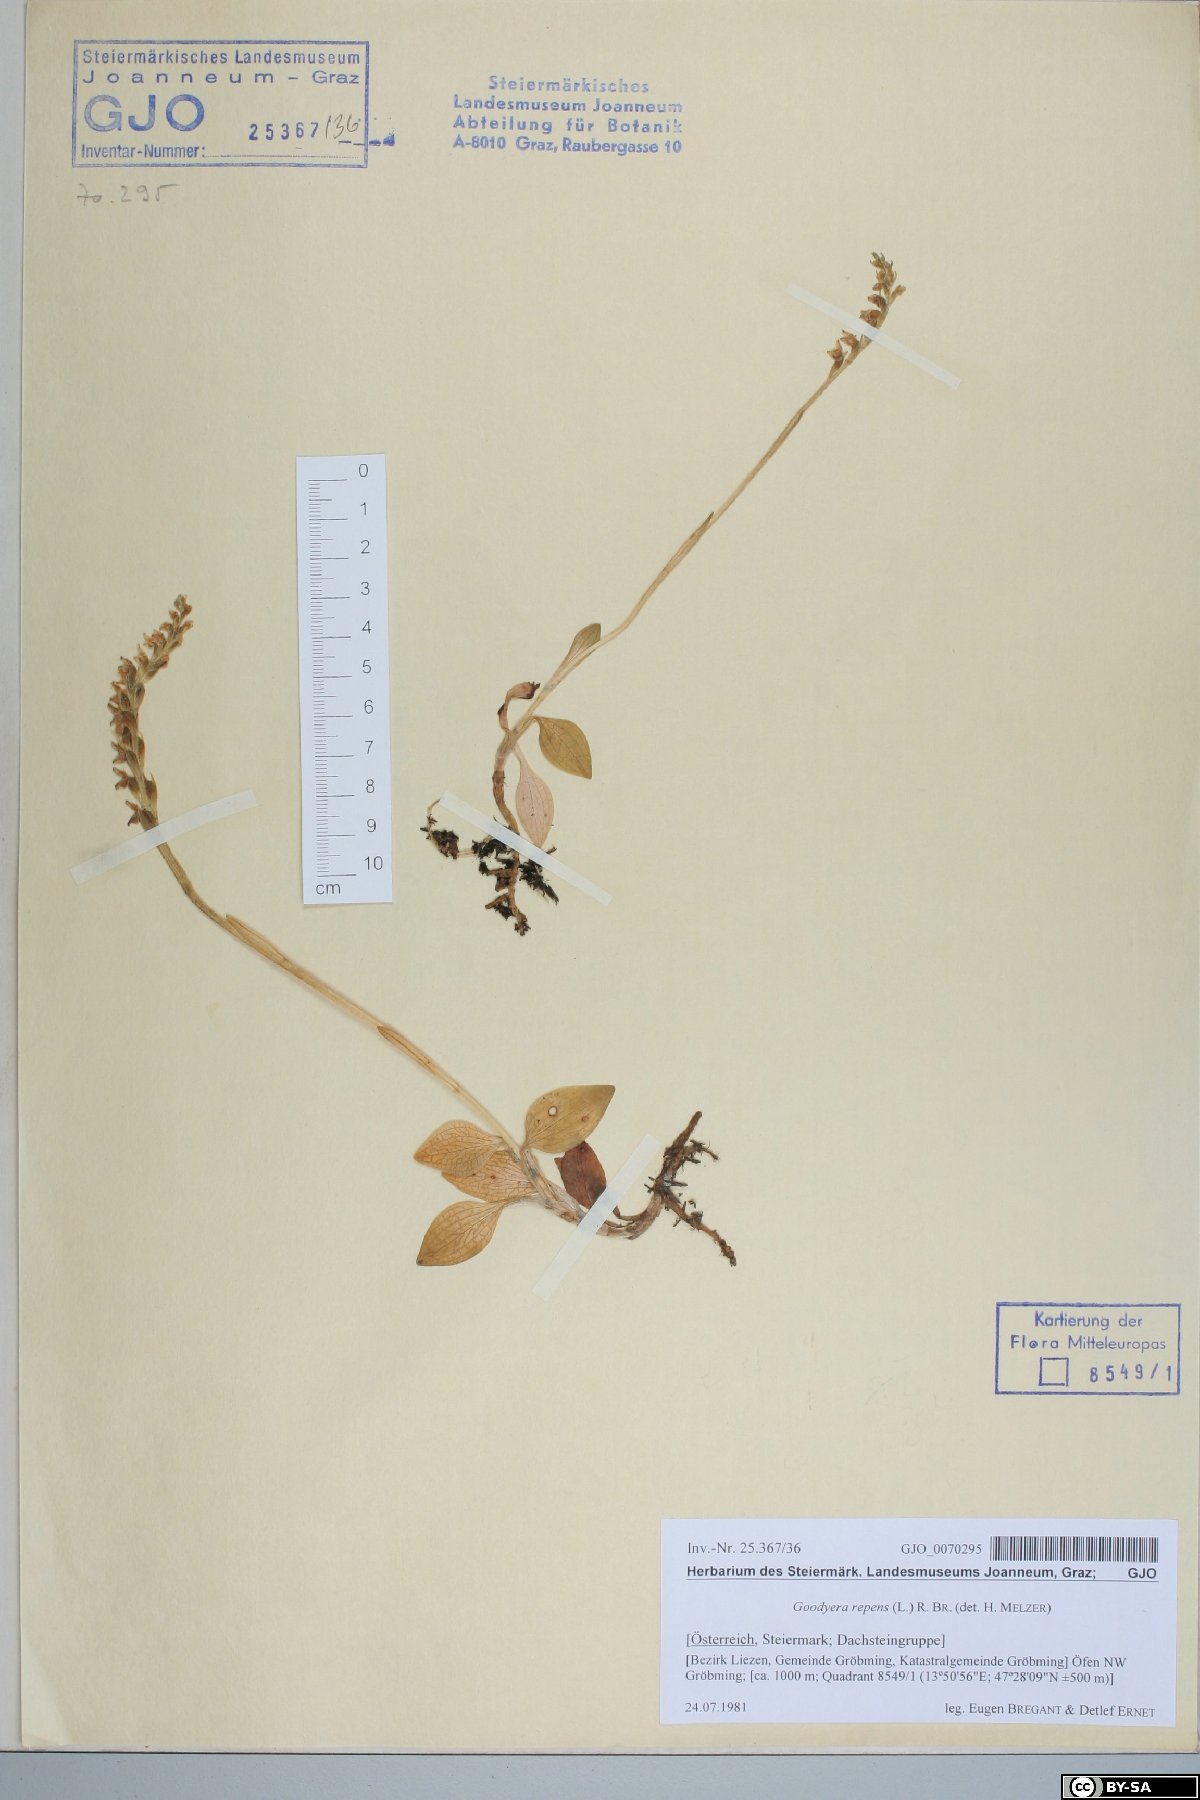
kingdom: Plantae
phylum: Tracheophyta
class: Liliopsida
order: Asparagales
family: Orchidaceae
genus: Goodyera
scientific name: Goodyera repens
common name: Creeping lady's-tresses
